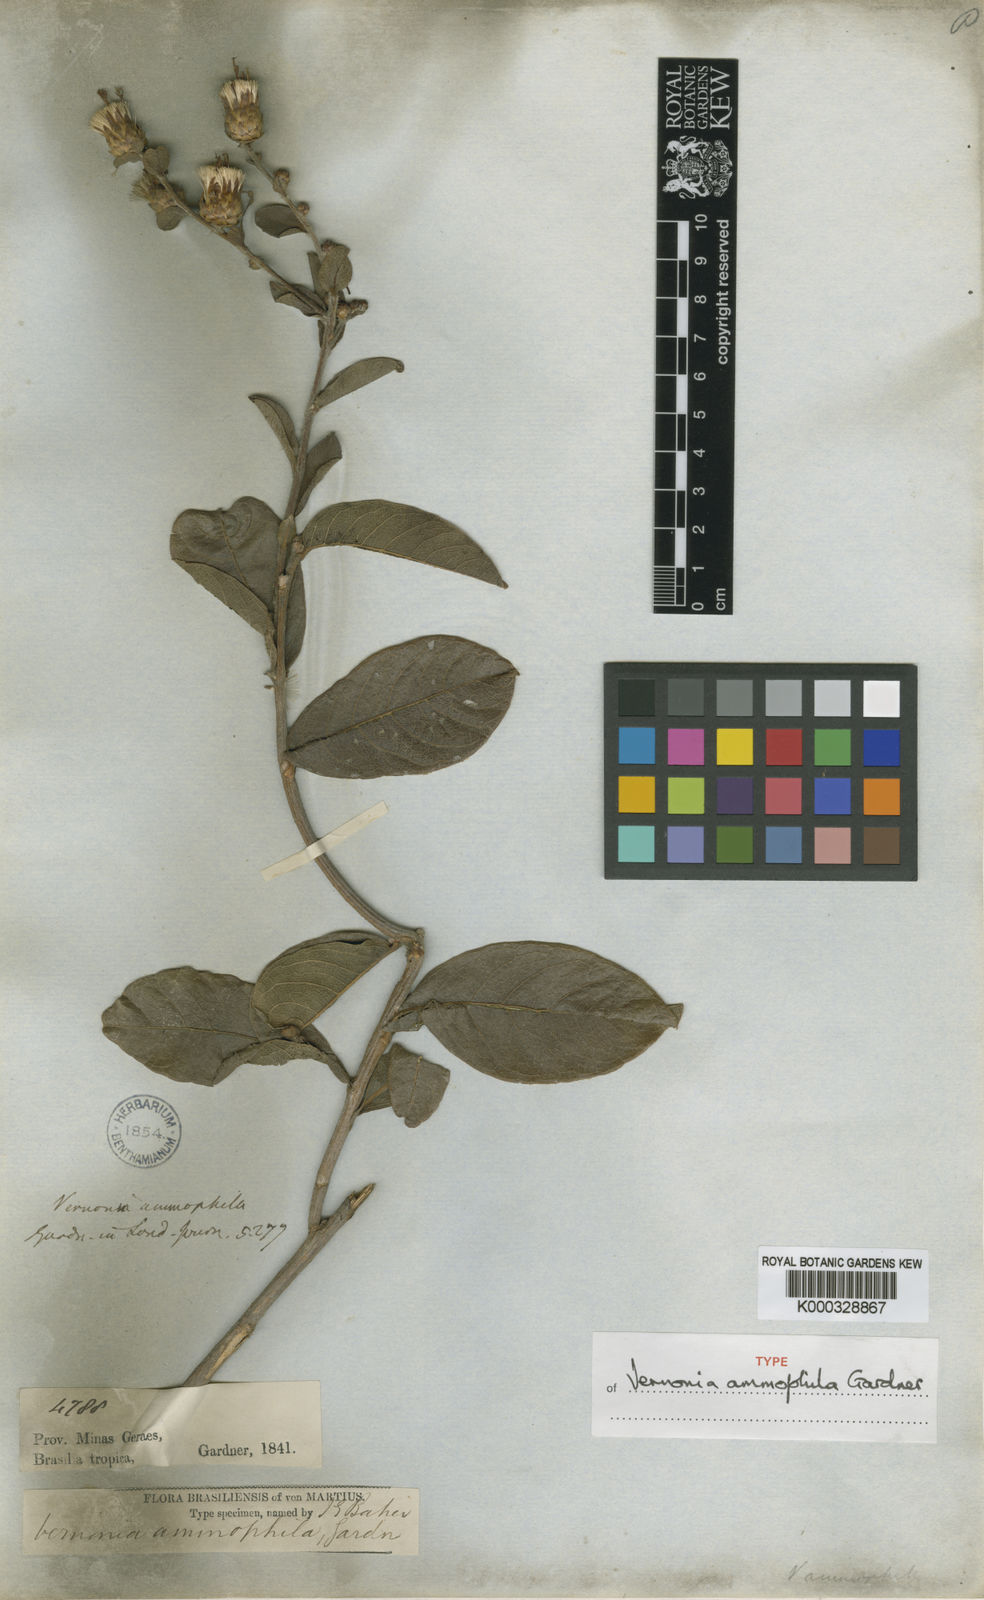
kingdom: Plantae
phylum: Tracheophyta
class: Magnoliopsida
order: Asterales
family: Asteraceae
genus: Lessingianthus
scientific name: Lessingianthus ammophilus
